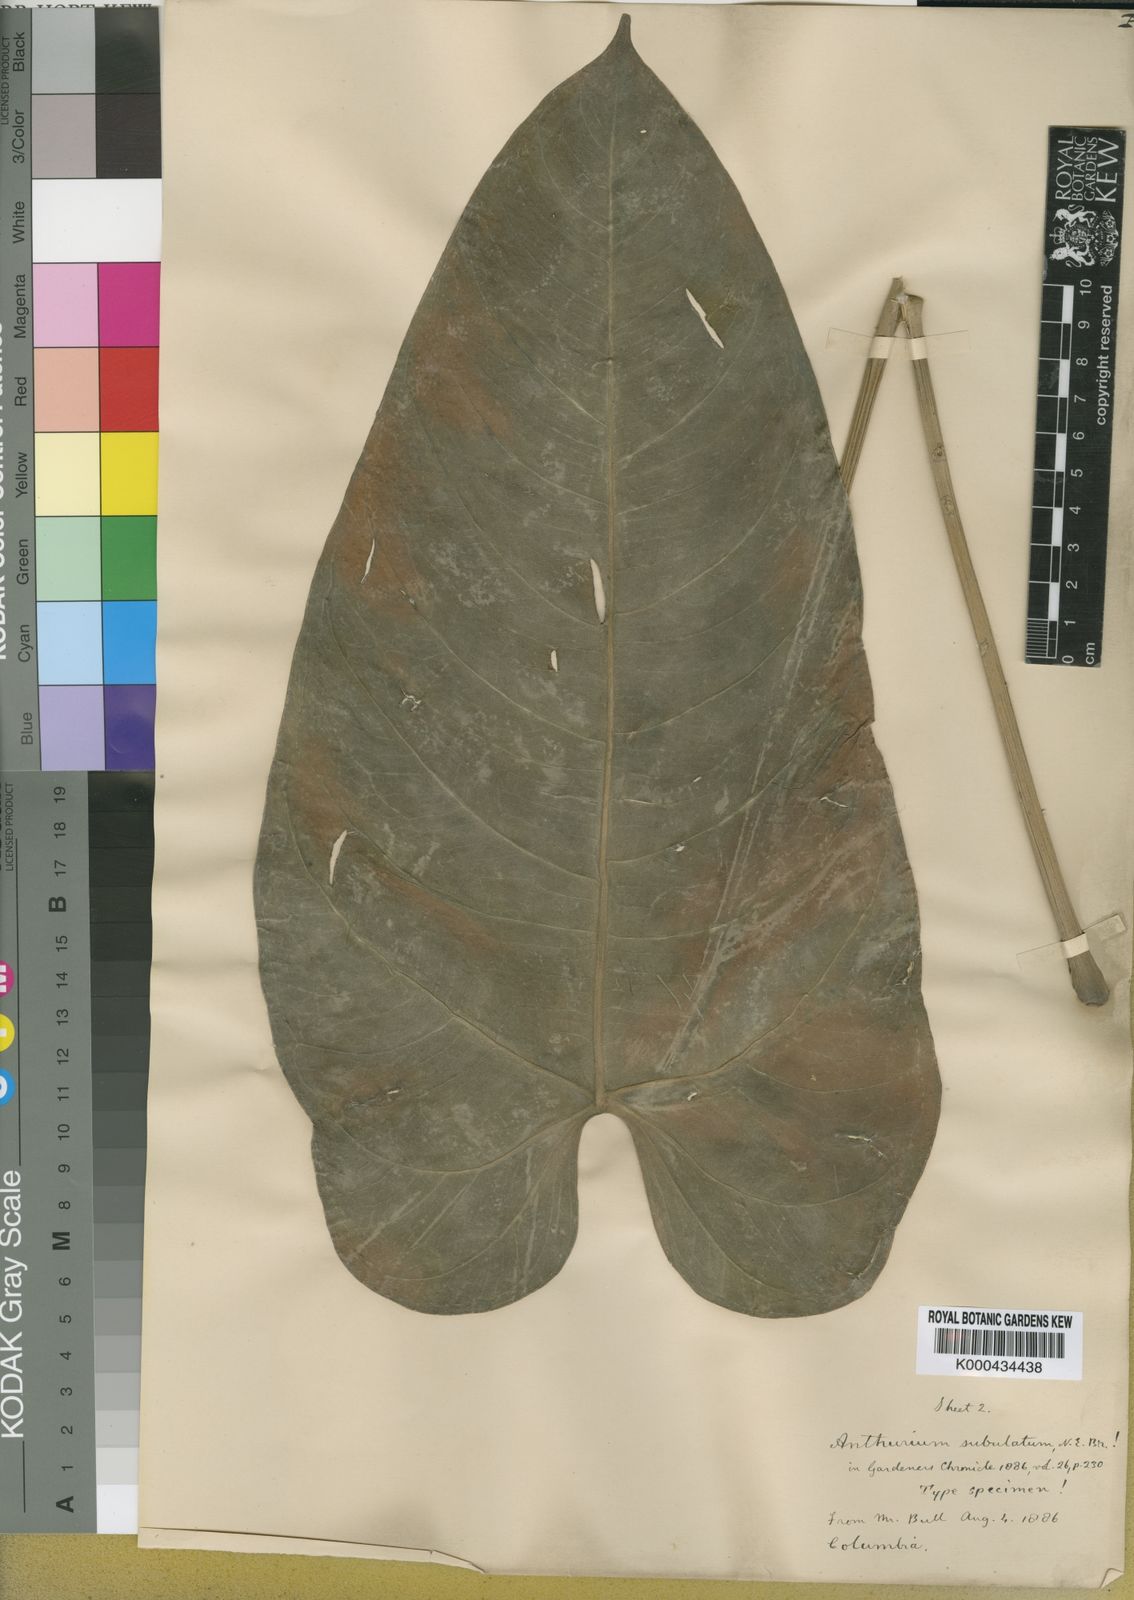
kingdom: Plantae
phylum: Tracheophyta
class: Liliopsida
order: Alismatales
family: Araceae
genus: Anthurium
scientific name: Anthurium subulatum
